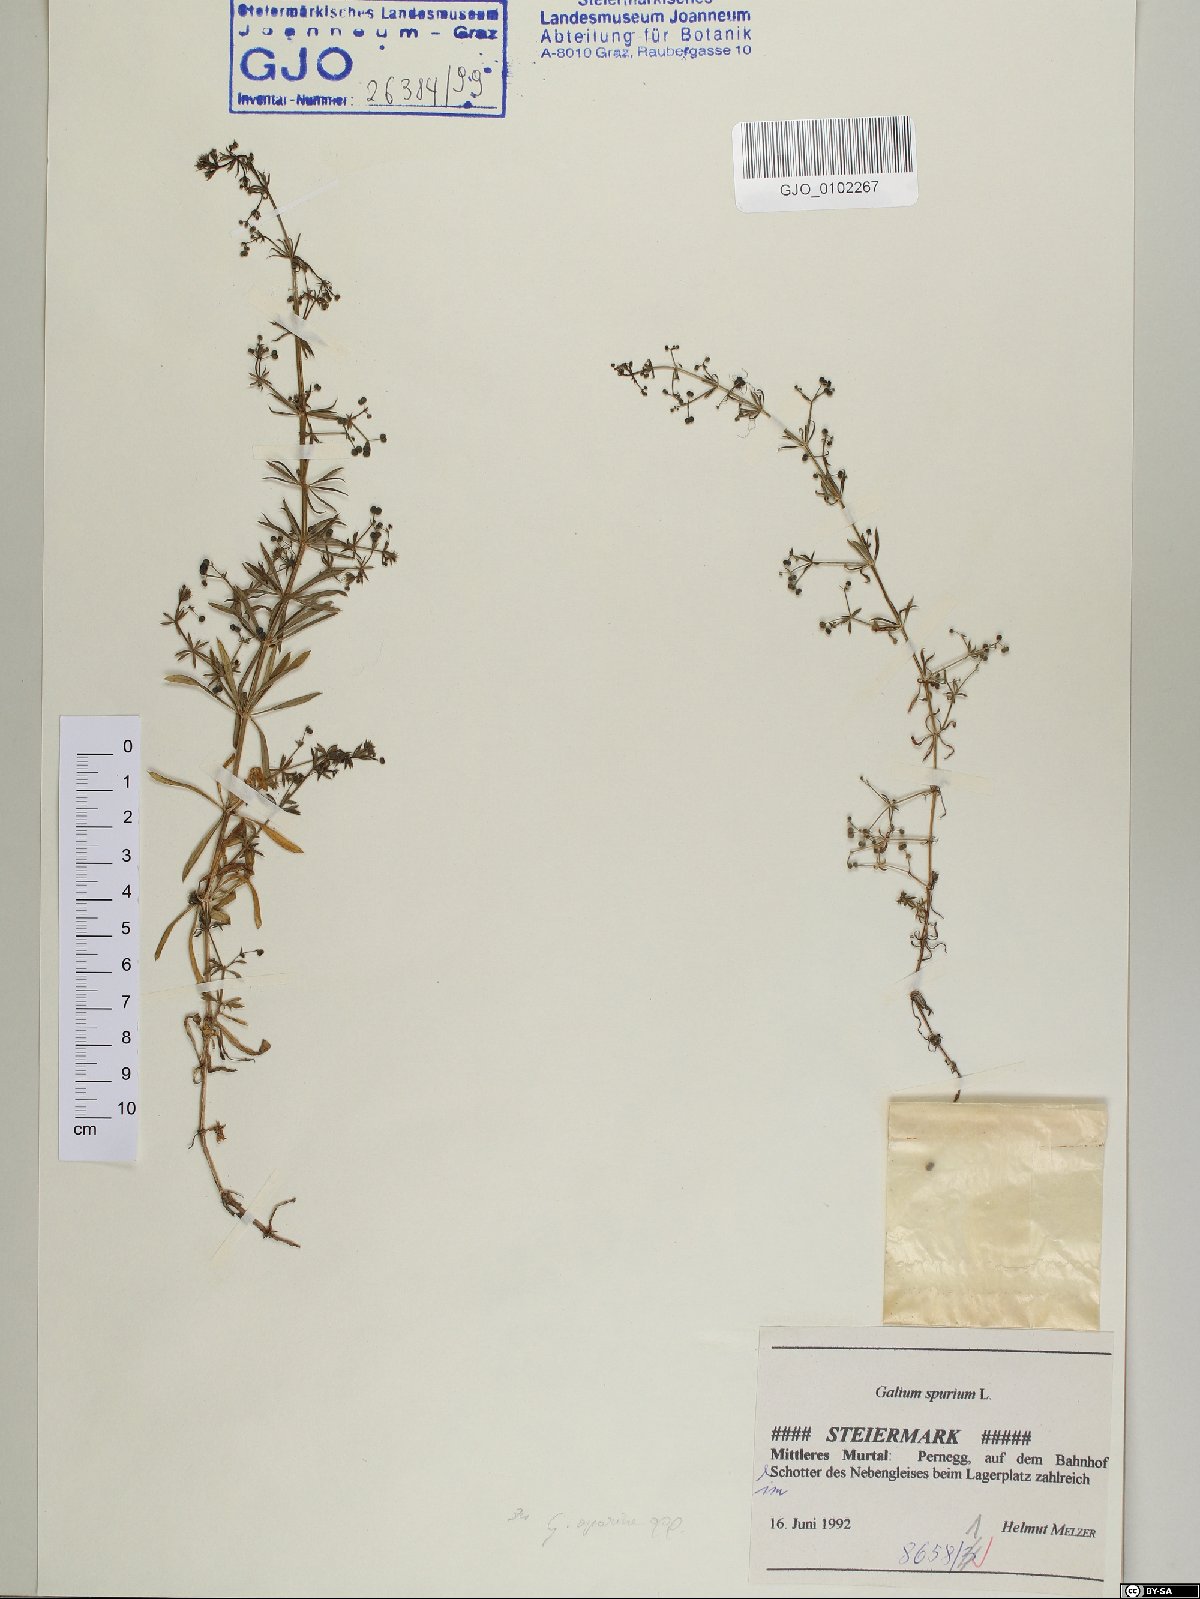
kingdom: Plantae
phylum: Tracheophyta
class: Magnoliopsida
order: Gentianales
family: Rubiaceae
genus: Galium
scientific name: Galium spurium
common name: False cleavers
